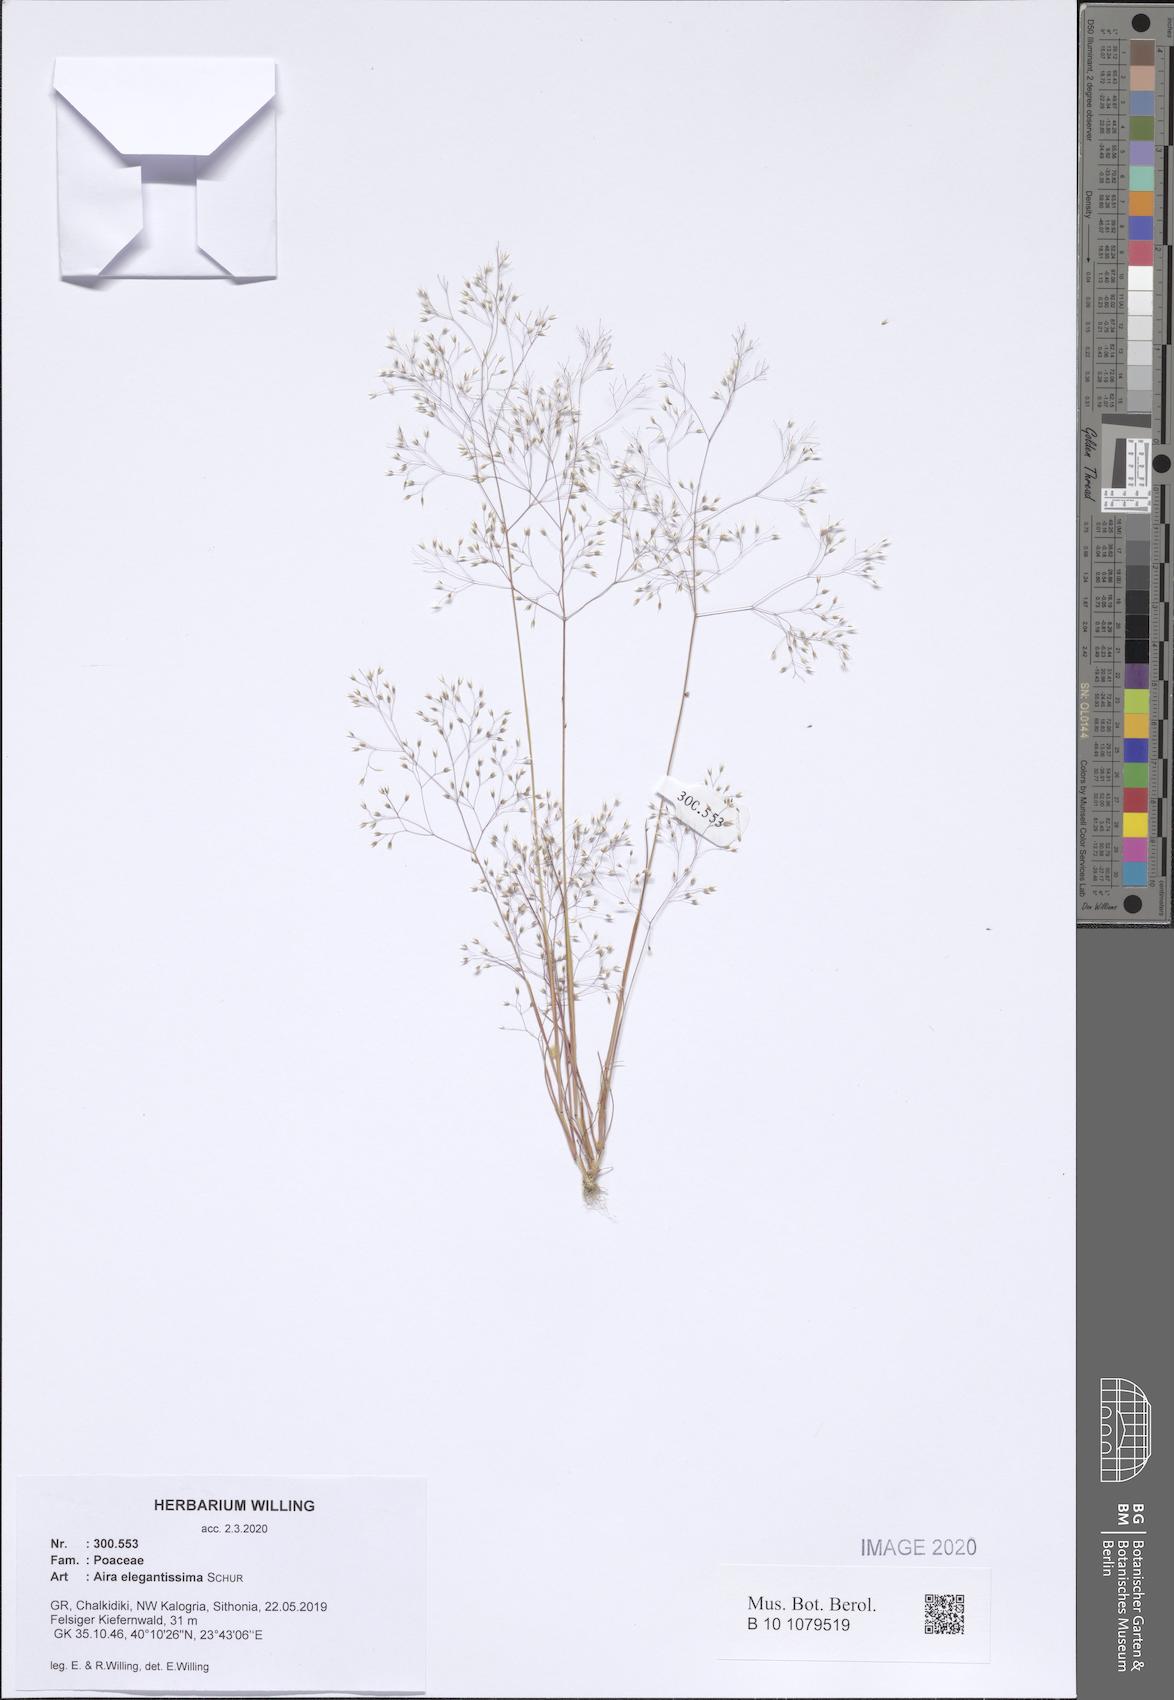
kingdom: Plantae
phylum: Tracheophyta
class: Liliopsida
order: Poales
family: Poaceae
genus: Aira
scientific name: Aira elegans
